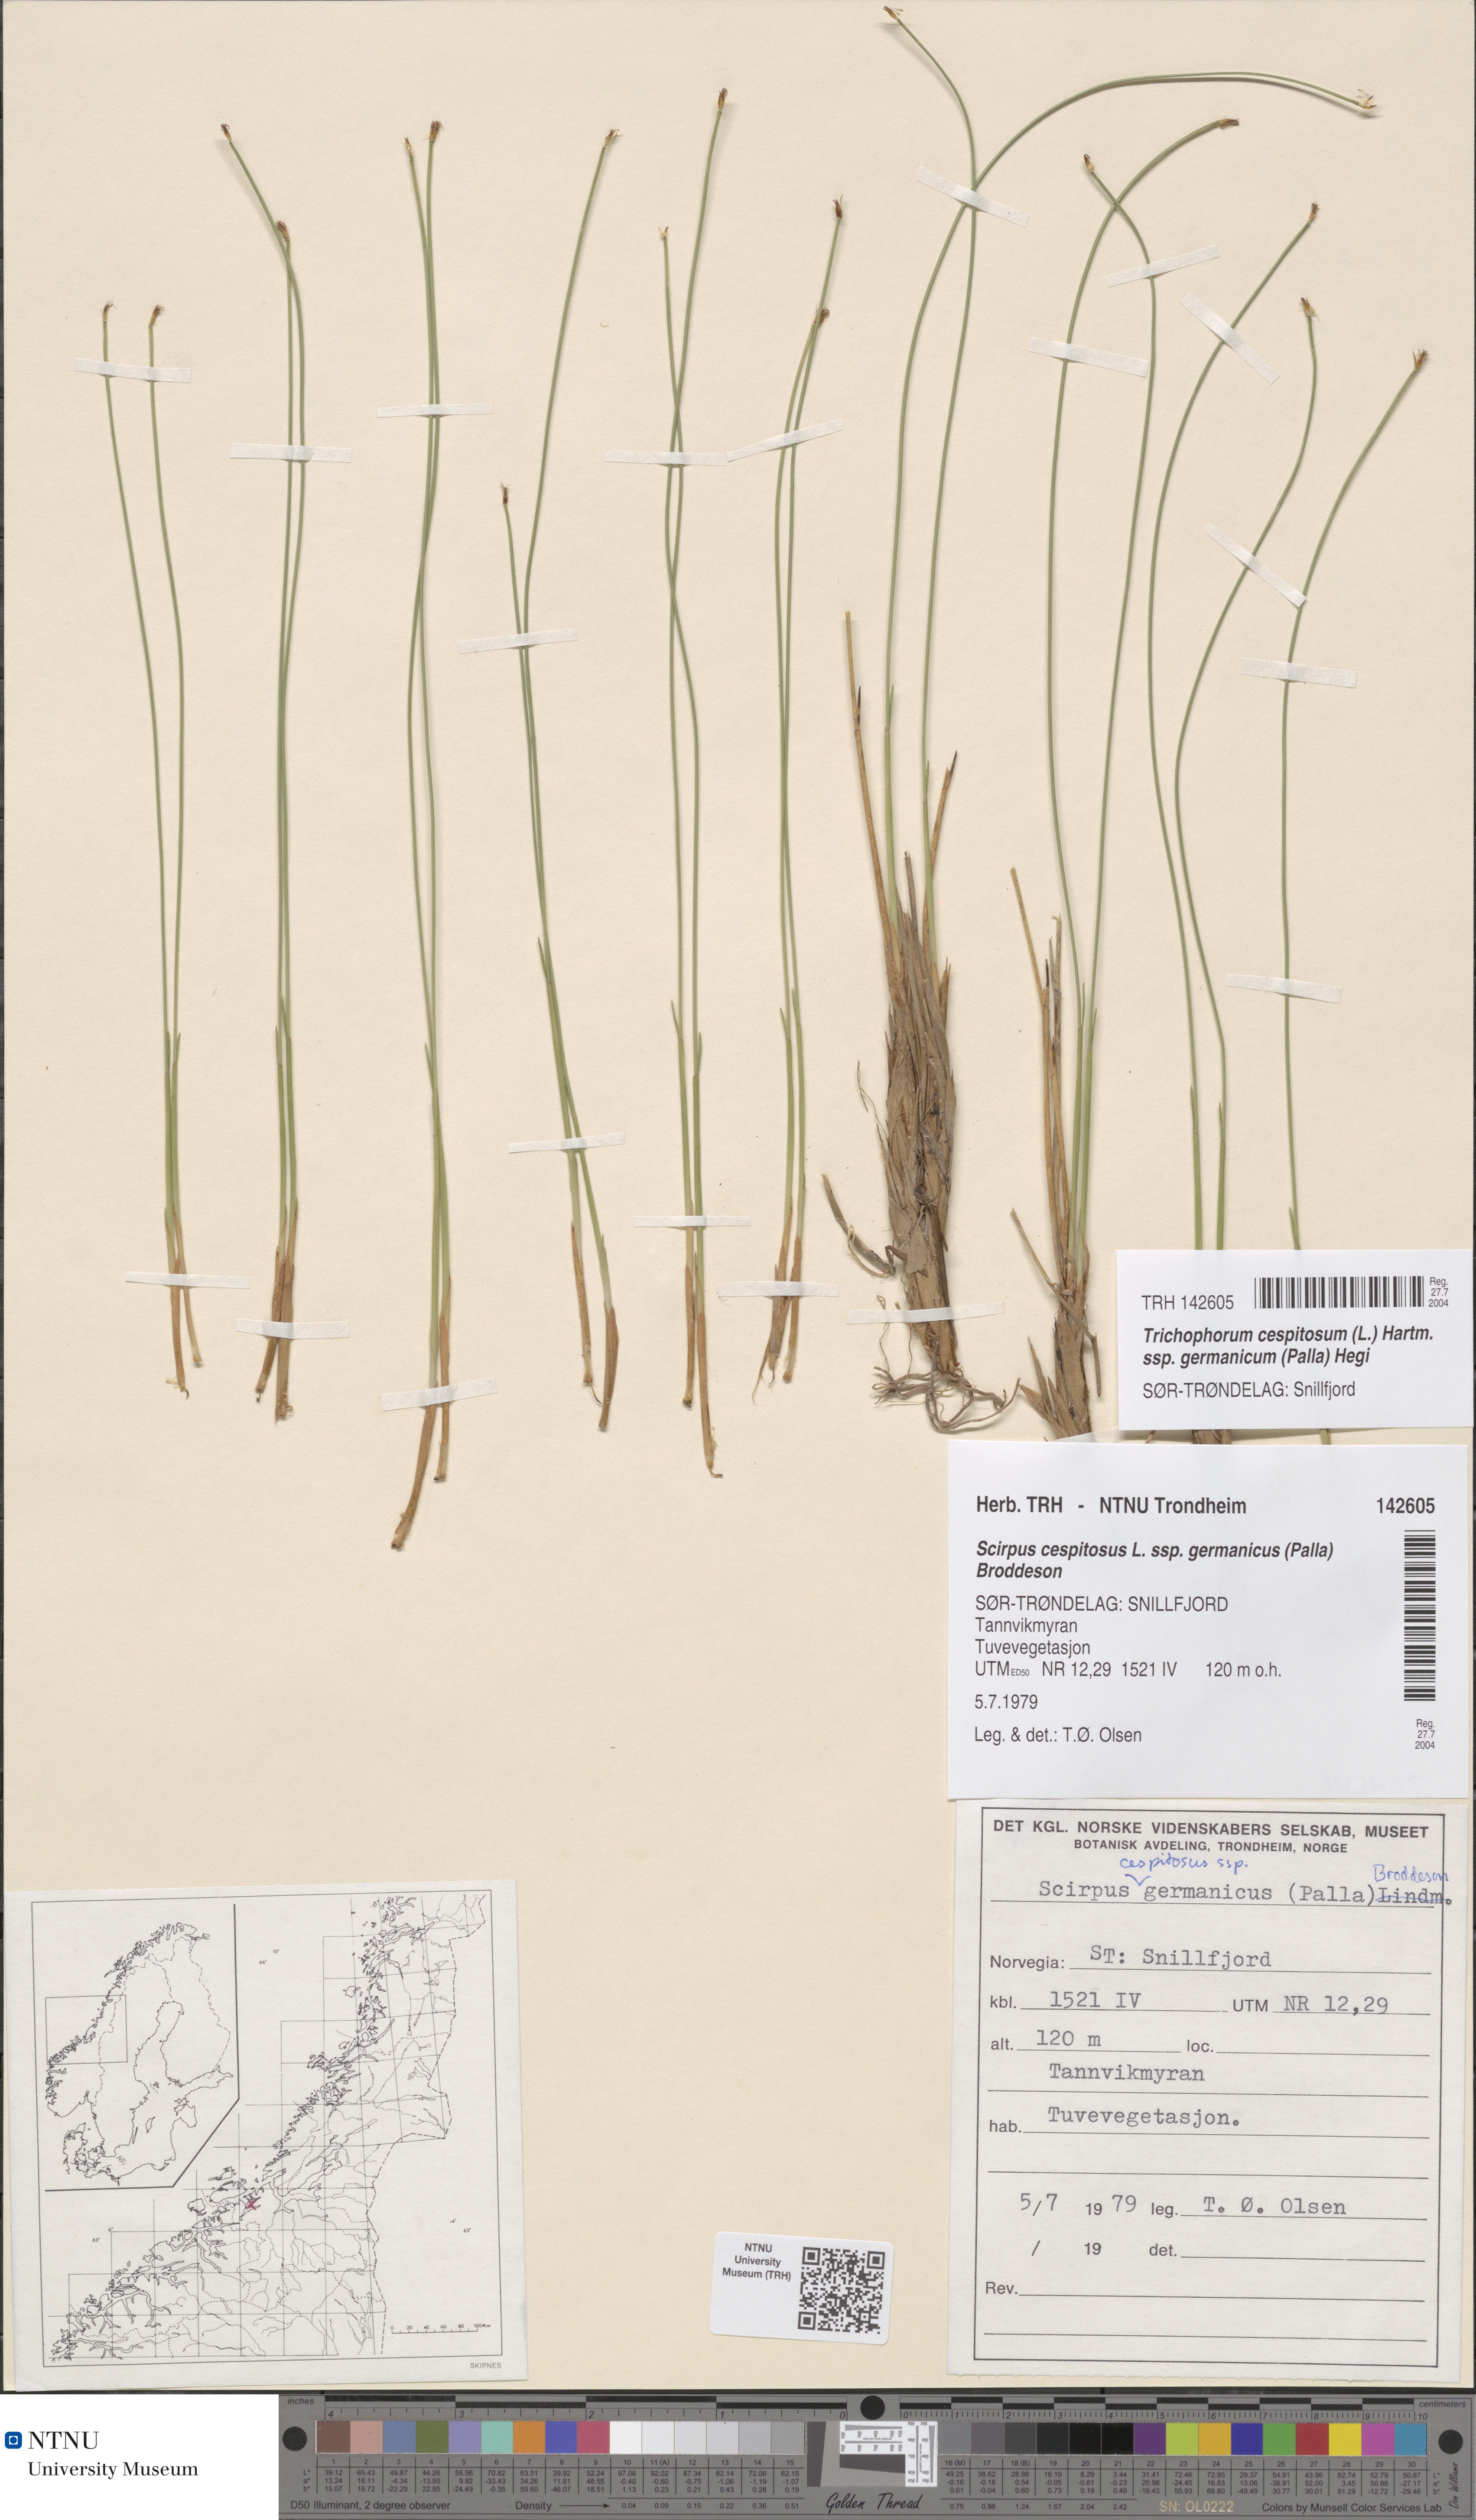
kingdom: Plantae
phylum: Tracheophyta
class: Liliopsida
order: Poales
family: Cyperaceae
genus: Trichophorum
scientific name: Trichophorum cespitosum
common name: Cespitose bulrush
